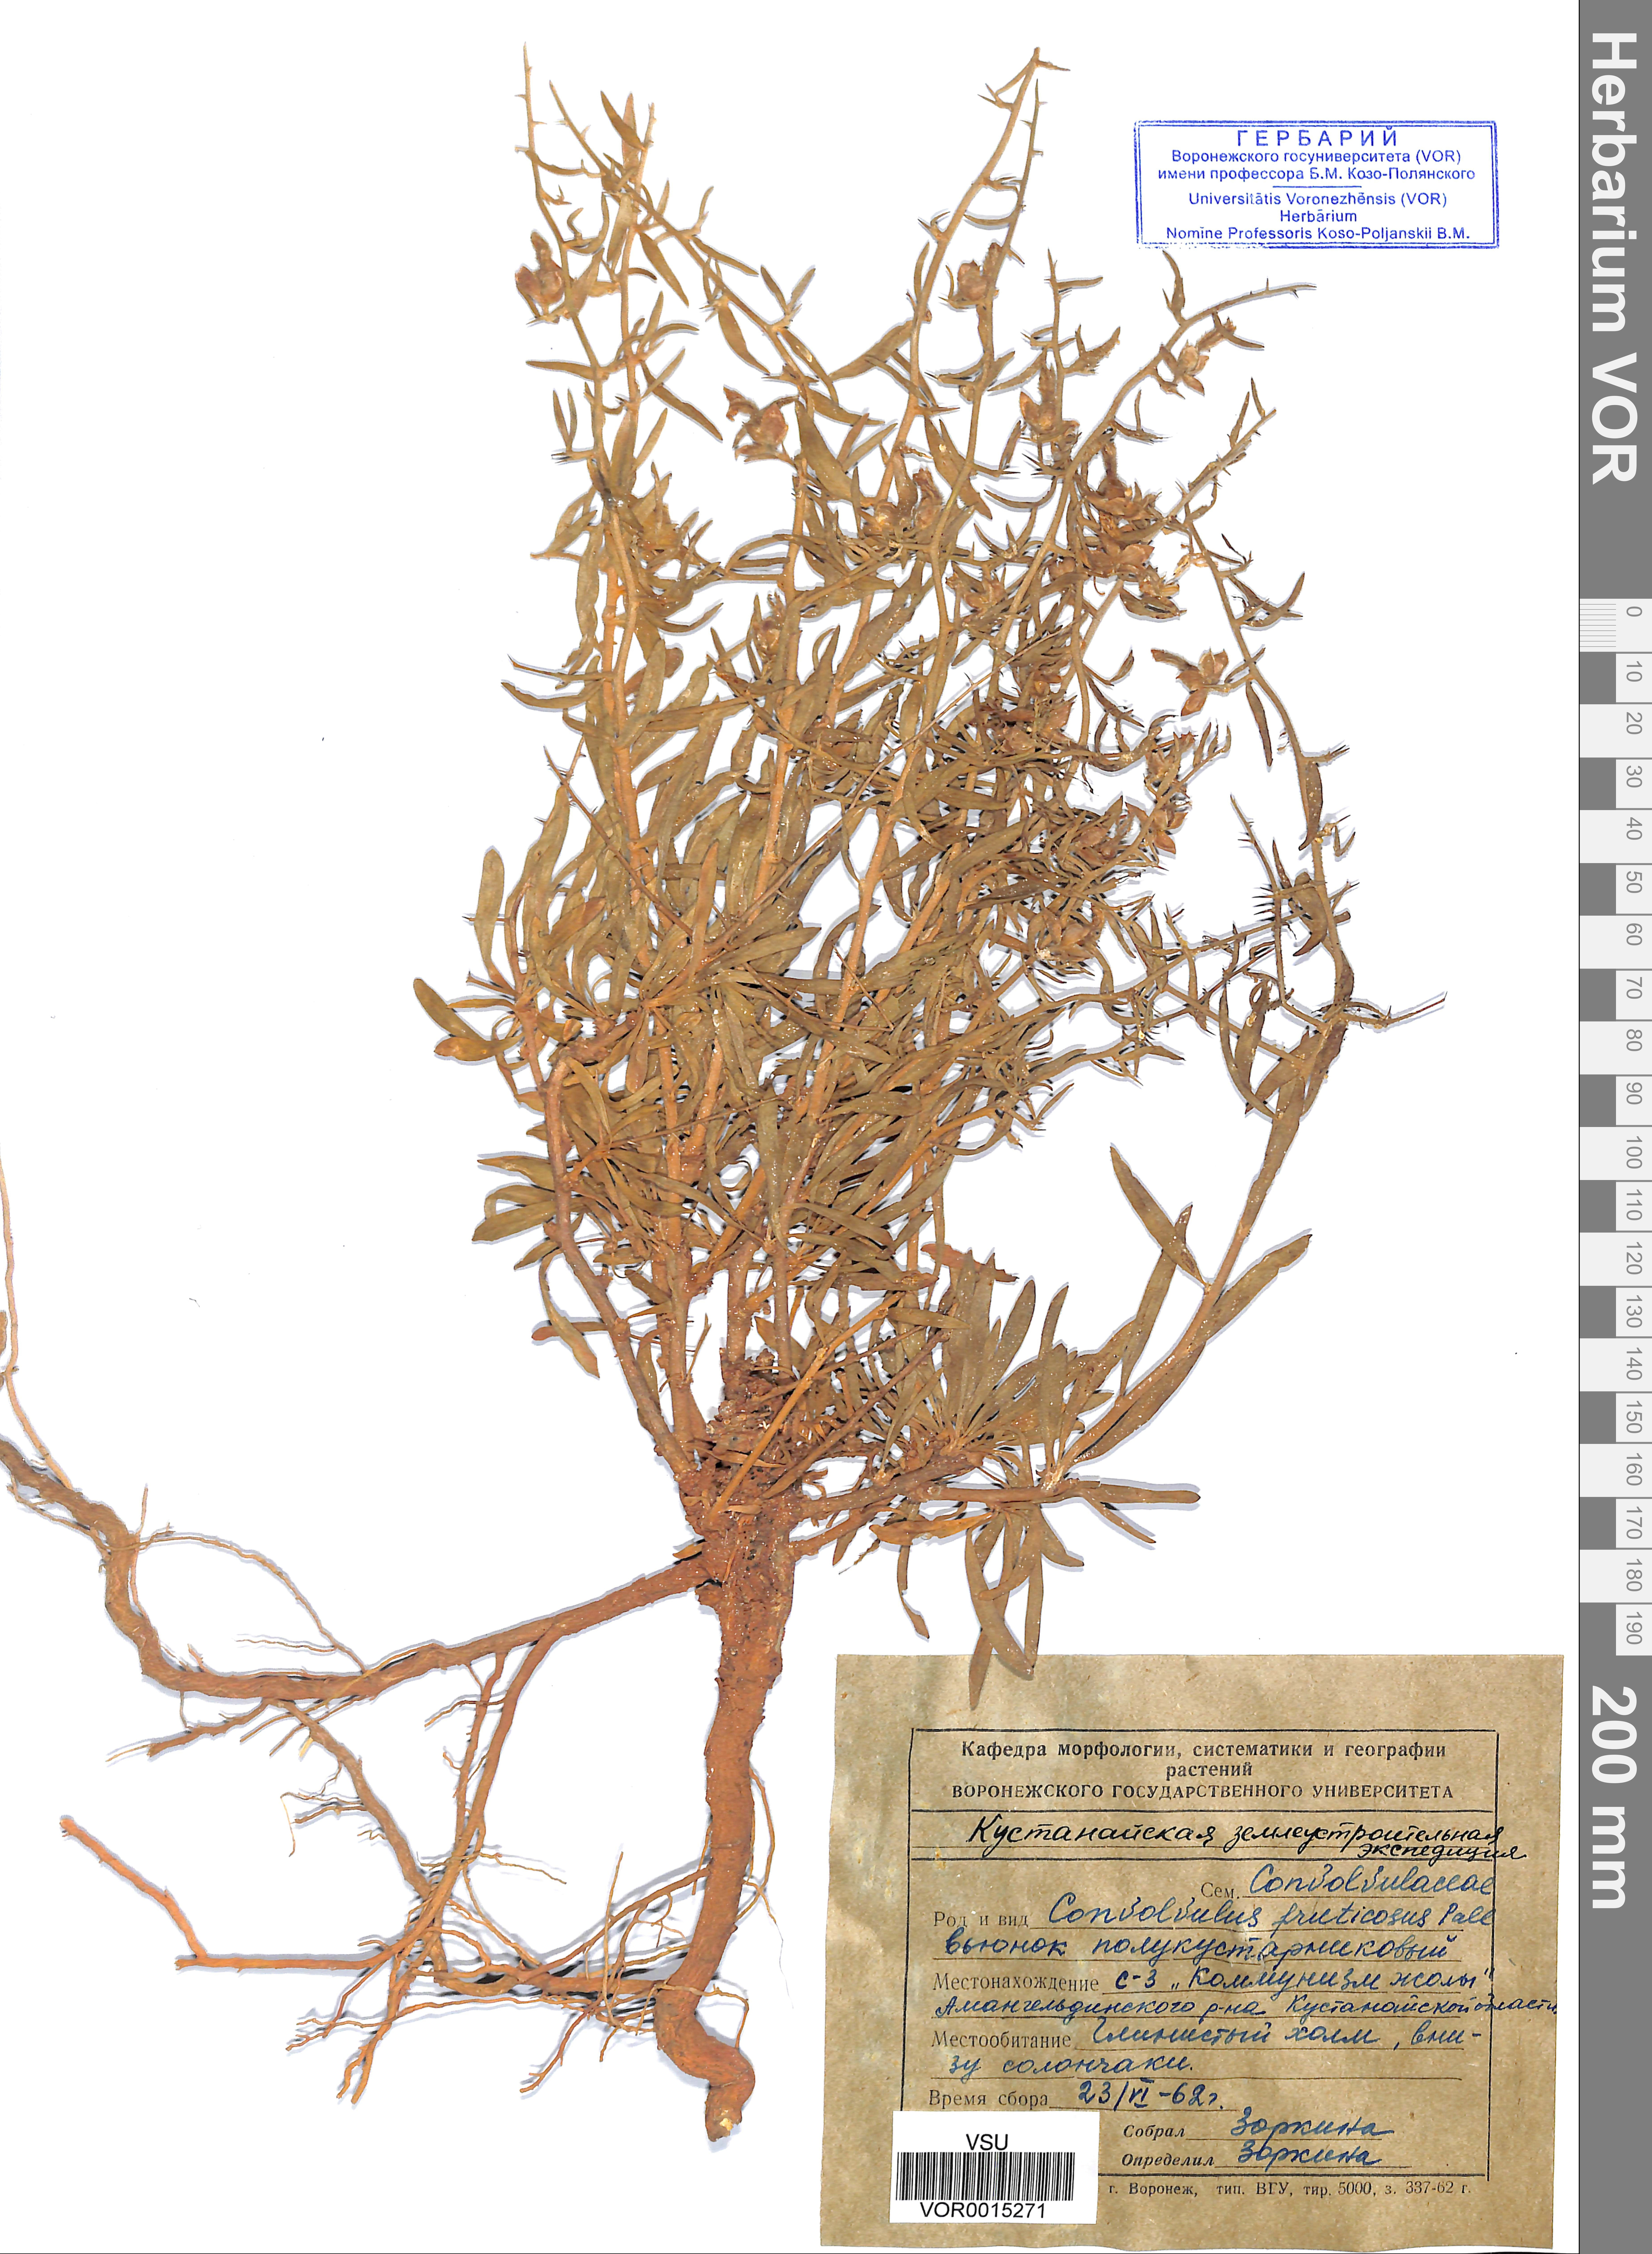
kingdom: Plantae
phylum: Tracheophyta
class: Magnoliopsida
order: Solanales
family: Convolvulaceae
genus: Convolvulus
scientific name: Convolvulus fruticosus
